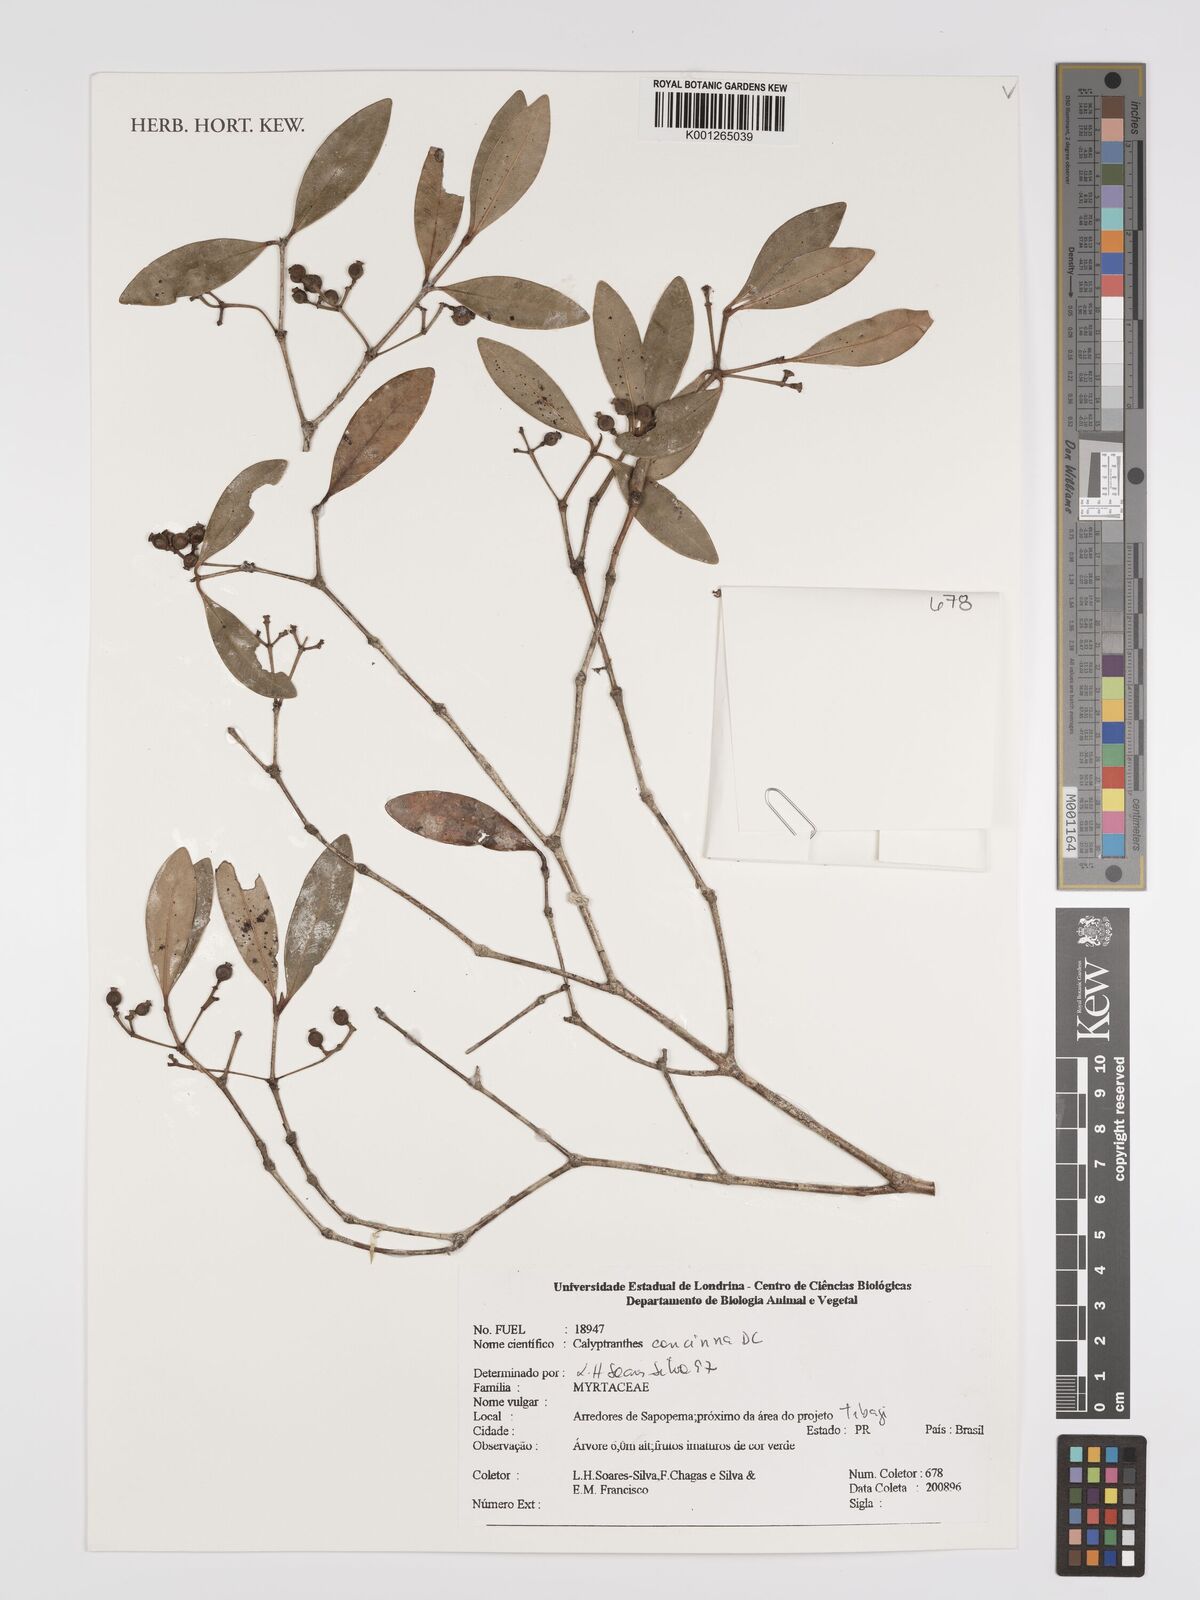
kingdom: Plantae
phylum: Tracheophyta
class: Magnoliopsida
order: Myrtales
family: Myrtaceae
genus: Myrcia
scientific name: Myrcia cruciflora
